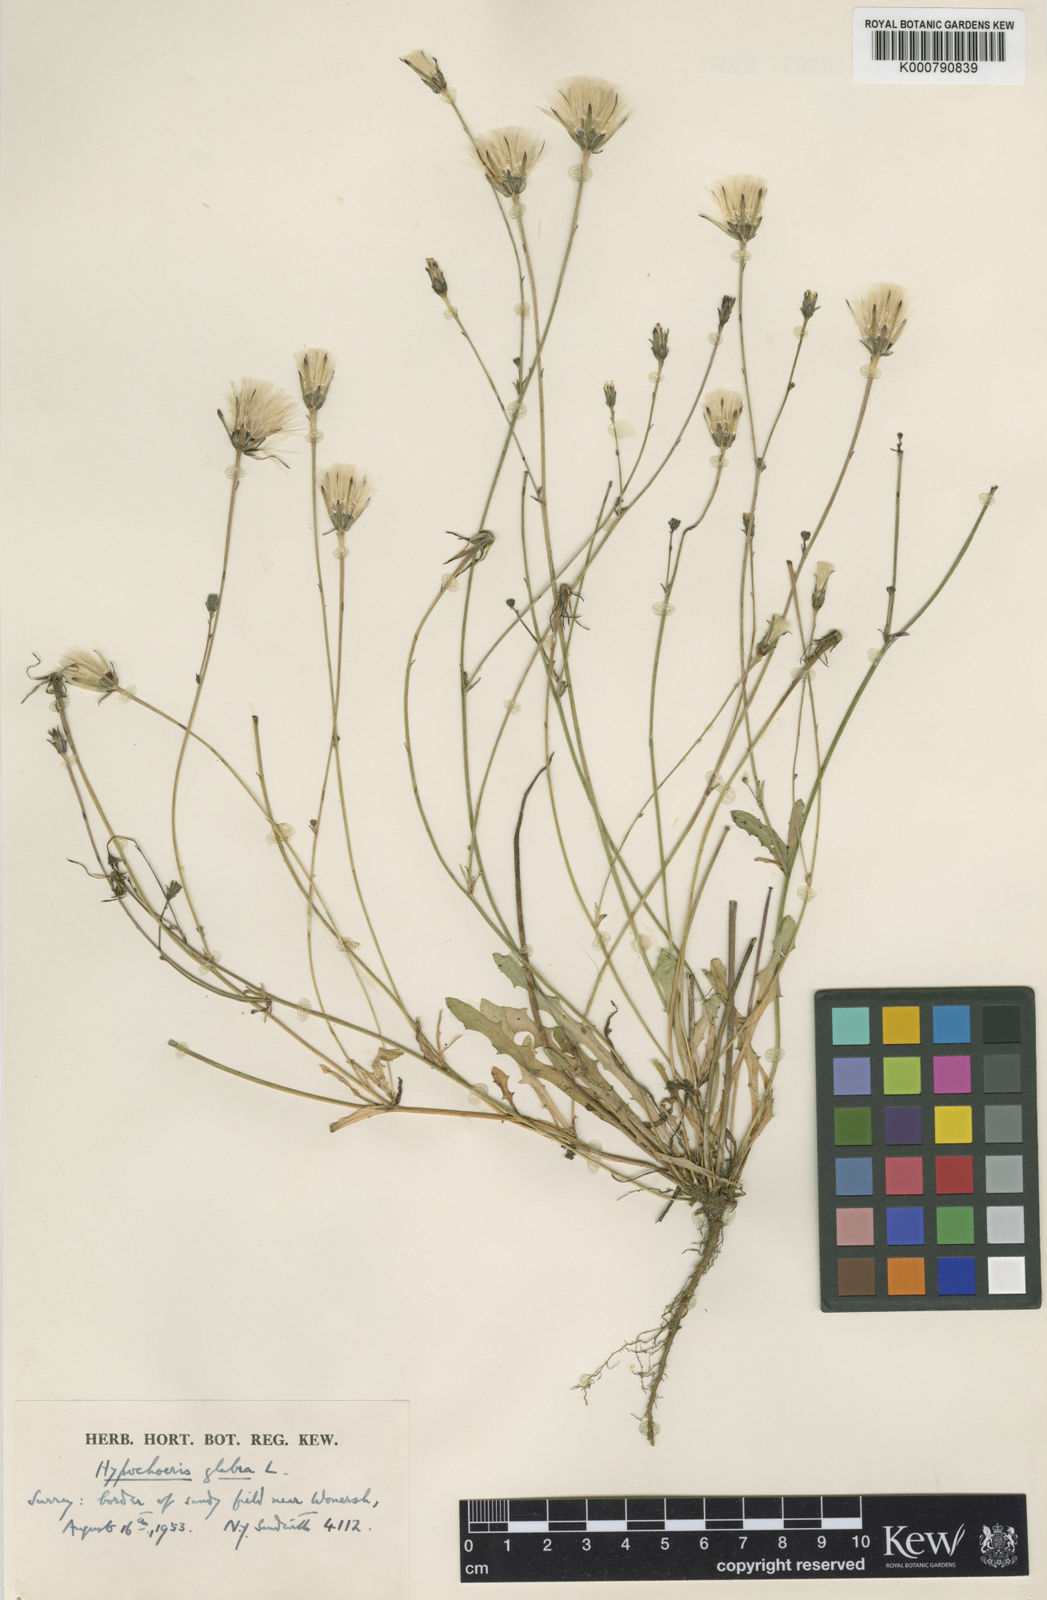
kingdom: Plantae
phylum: Tracheophyta
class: Magnoliopsida
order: Asterales
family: Asteraceae
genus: Hypochaeris
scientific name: Hypochaeris glabra
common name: Smooth catsear
